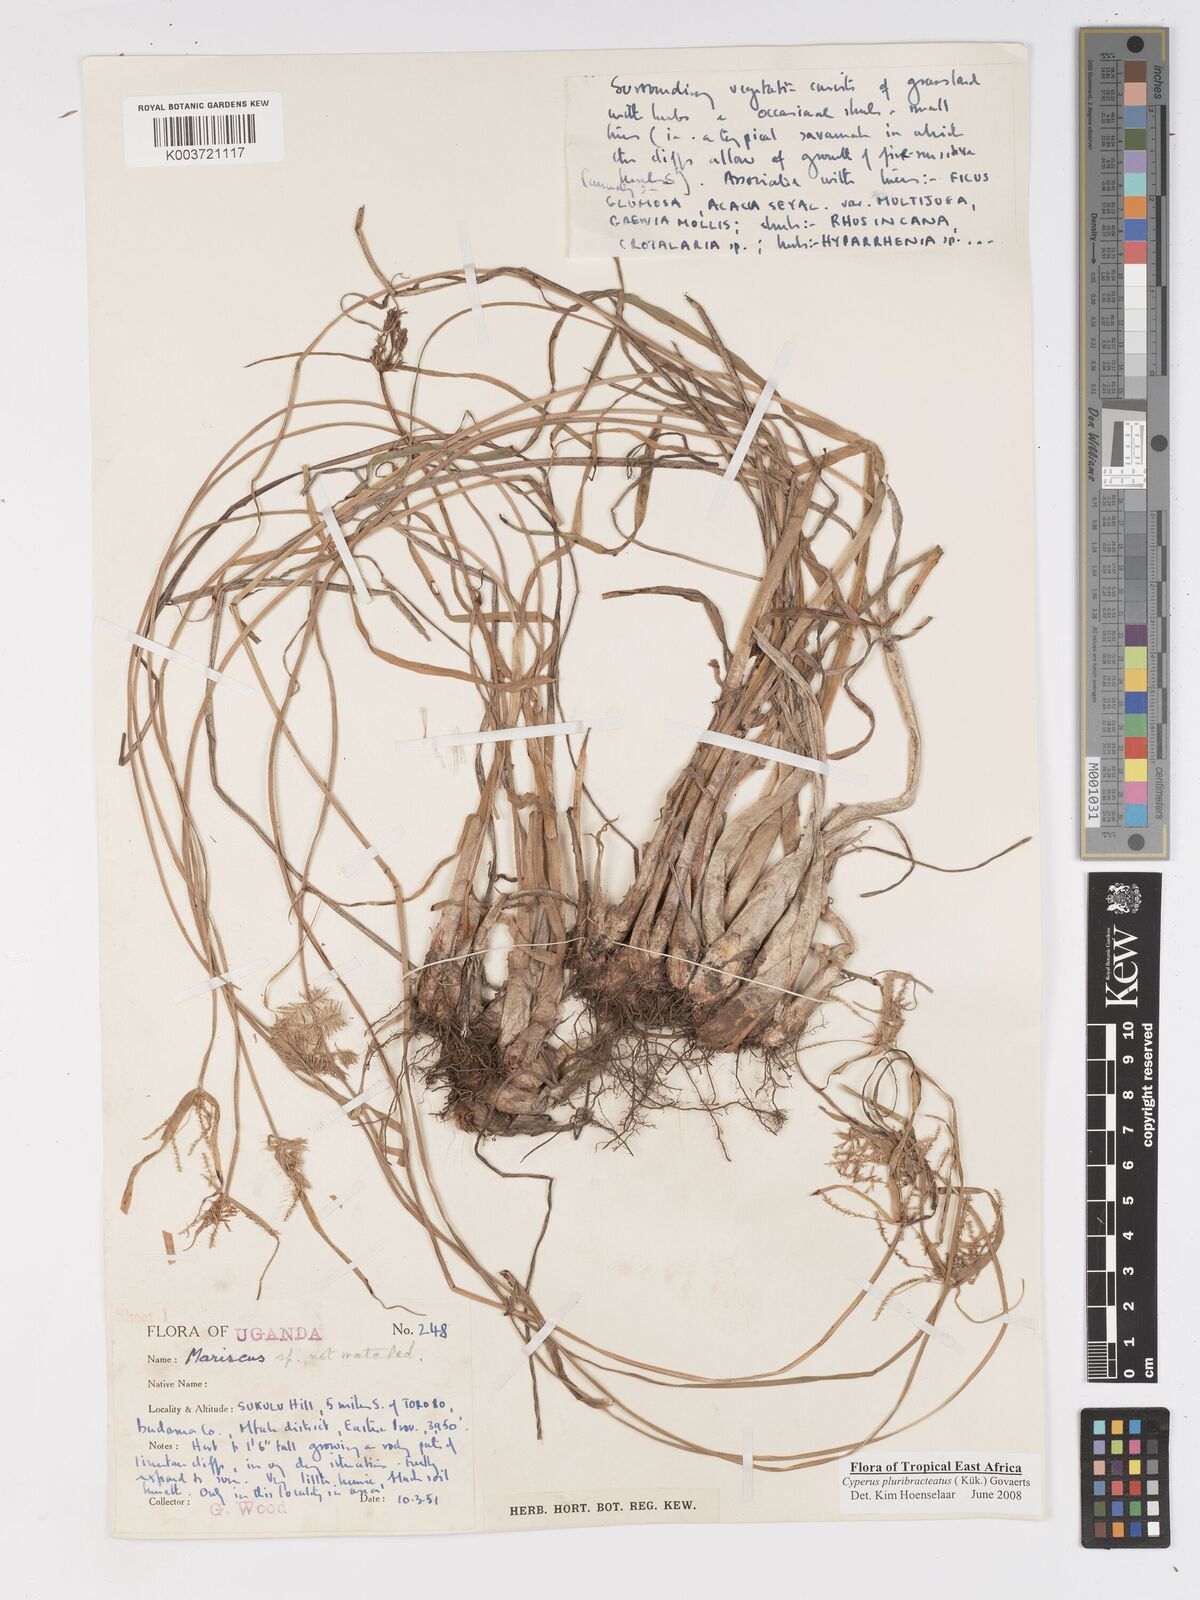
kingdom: Plantae
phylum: Tracheophyta
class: Liliopsida
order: Poales
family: Cyperaceae
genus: Cyperus
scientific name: Cyperus trigonellus
